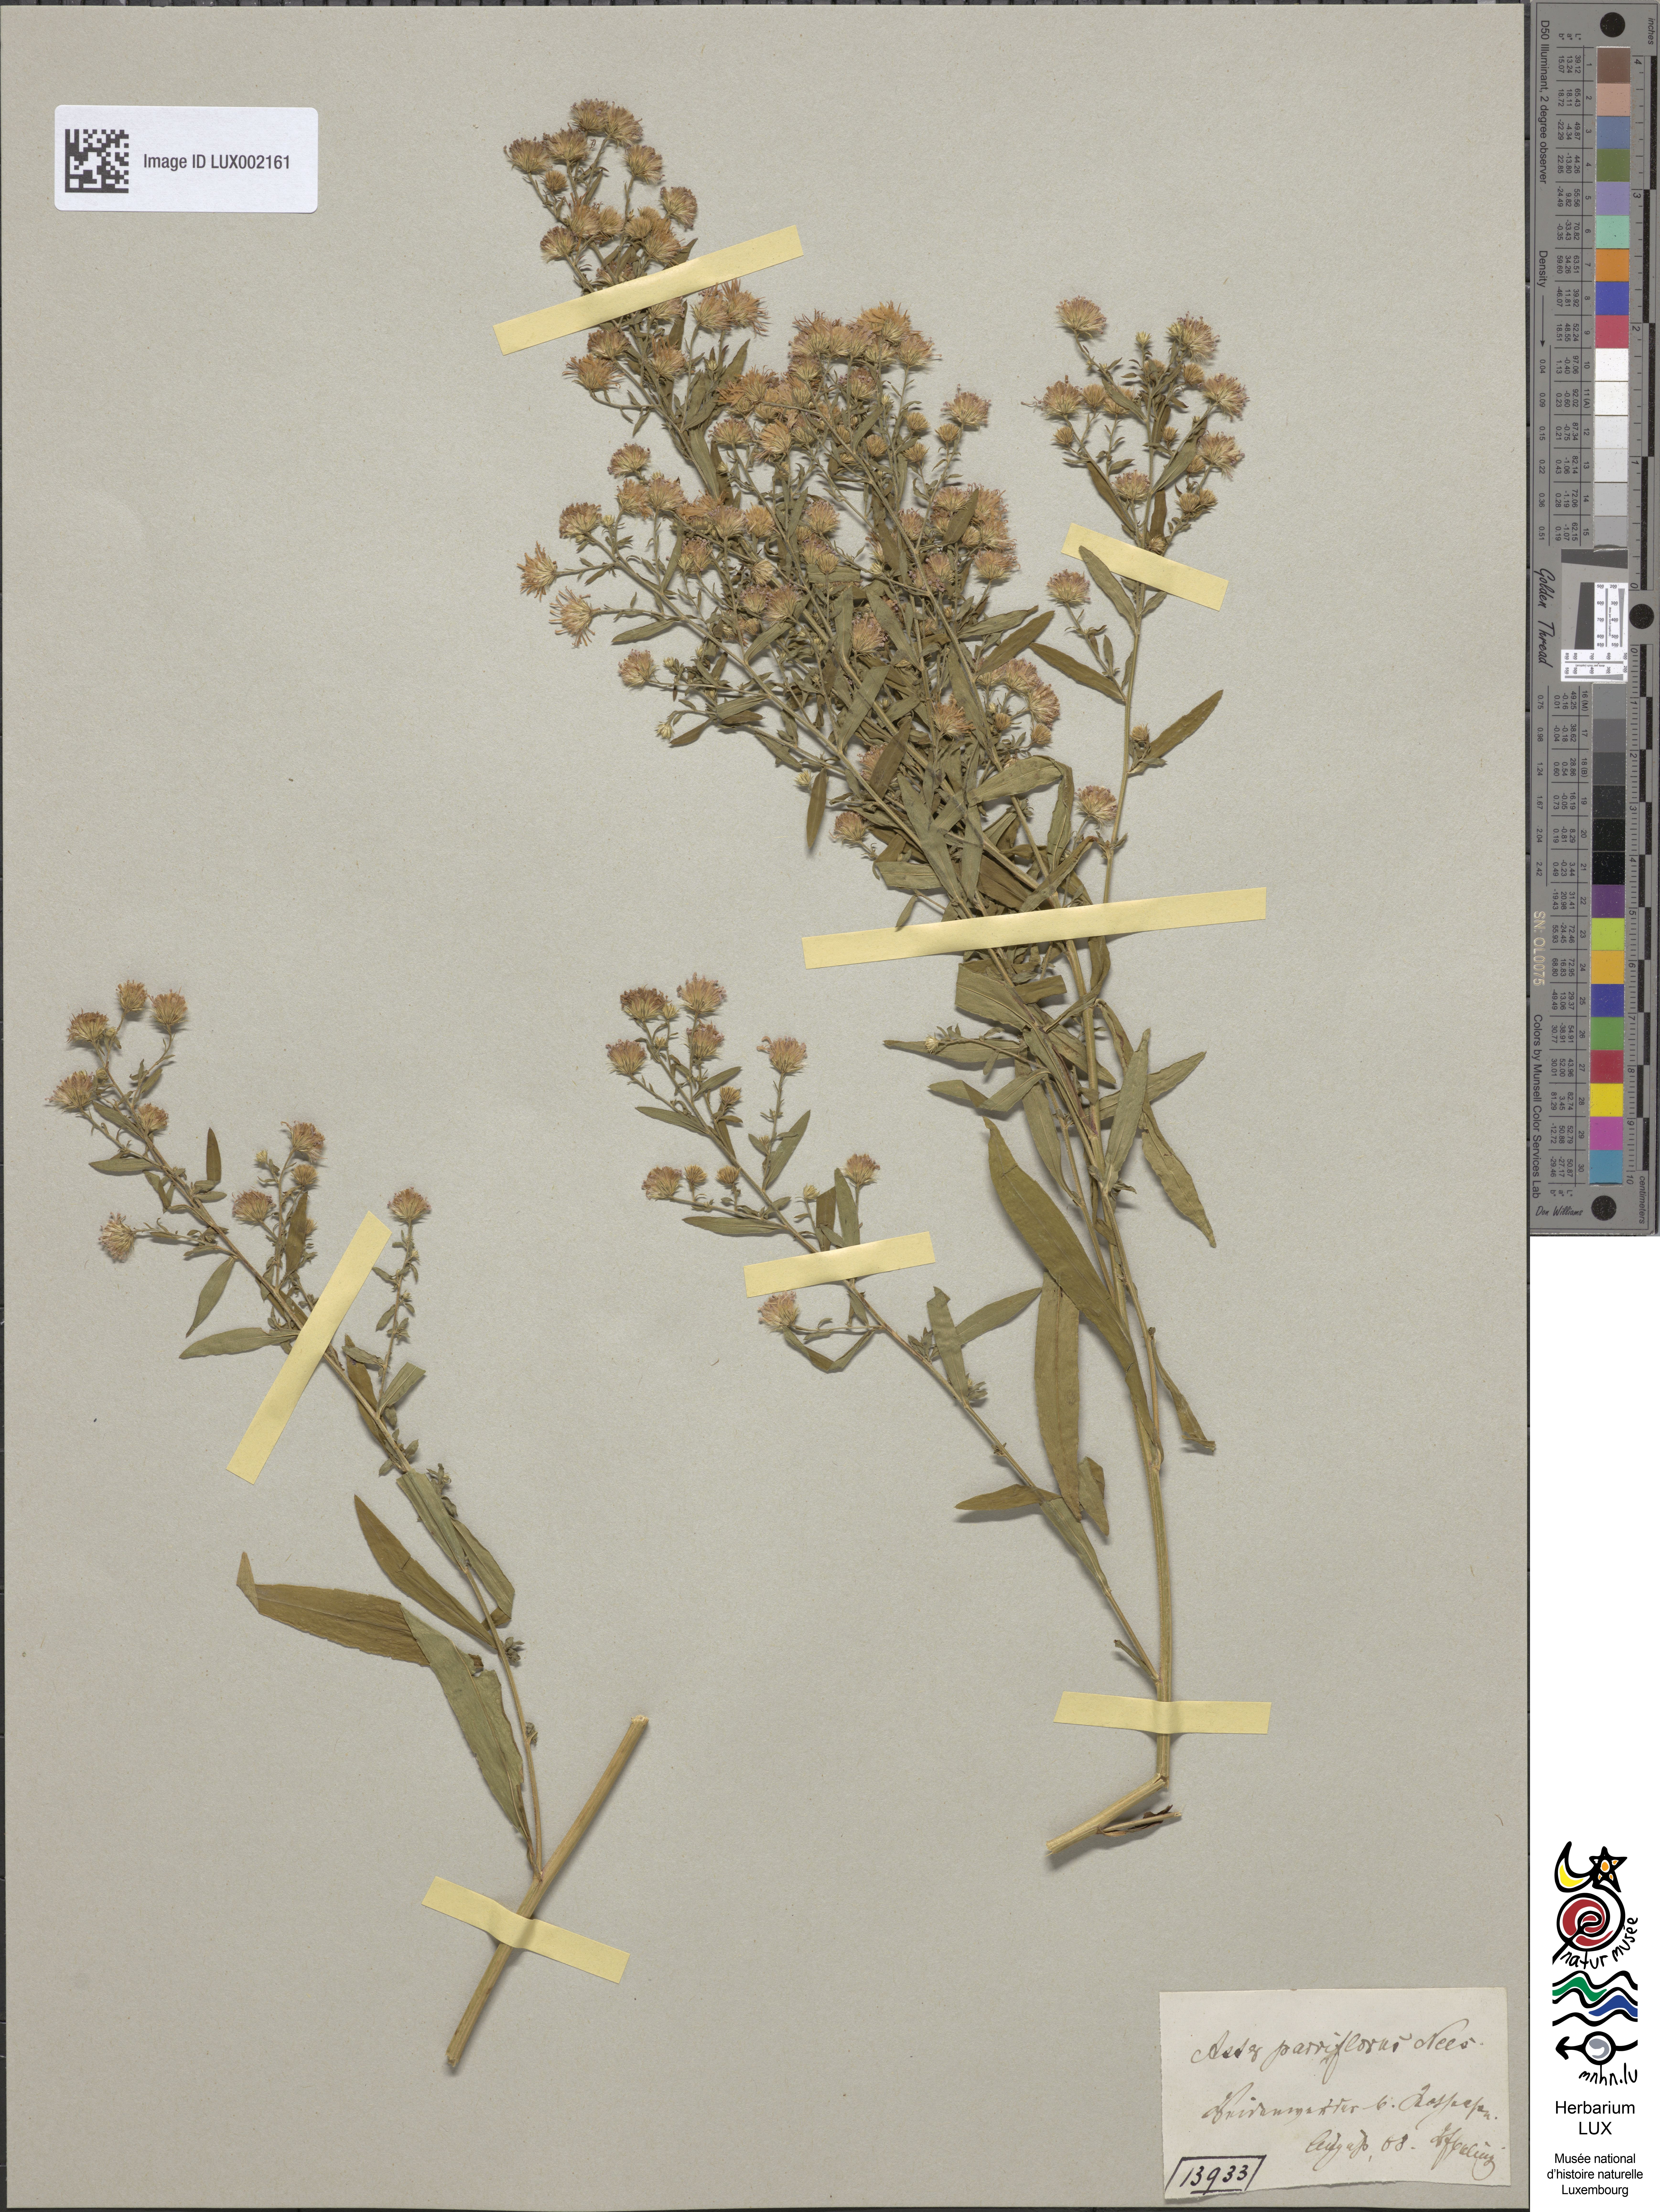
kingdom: Plantae
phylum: Tracheophyta
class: Magnoliopsida
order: Asterales
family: Asteraceae
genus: Symphyotrichum
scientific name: Symphyotrichum tradescantii
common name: Shore aster
